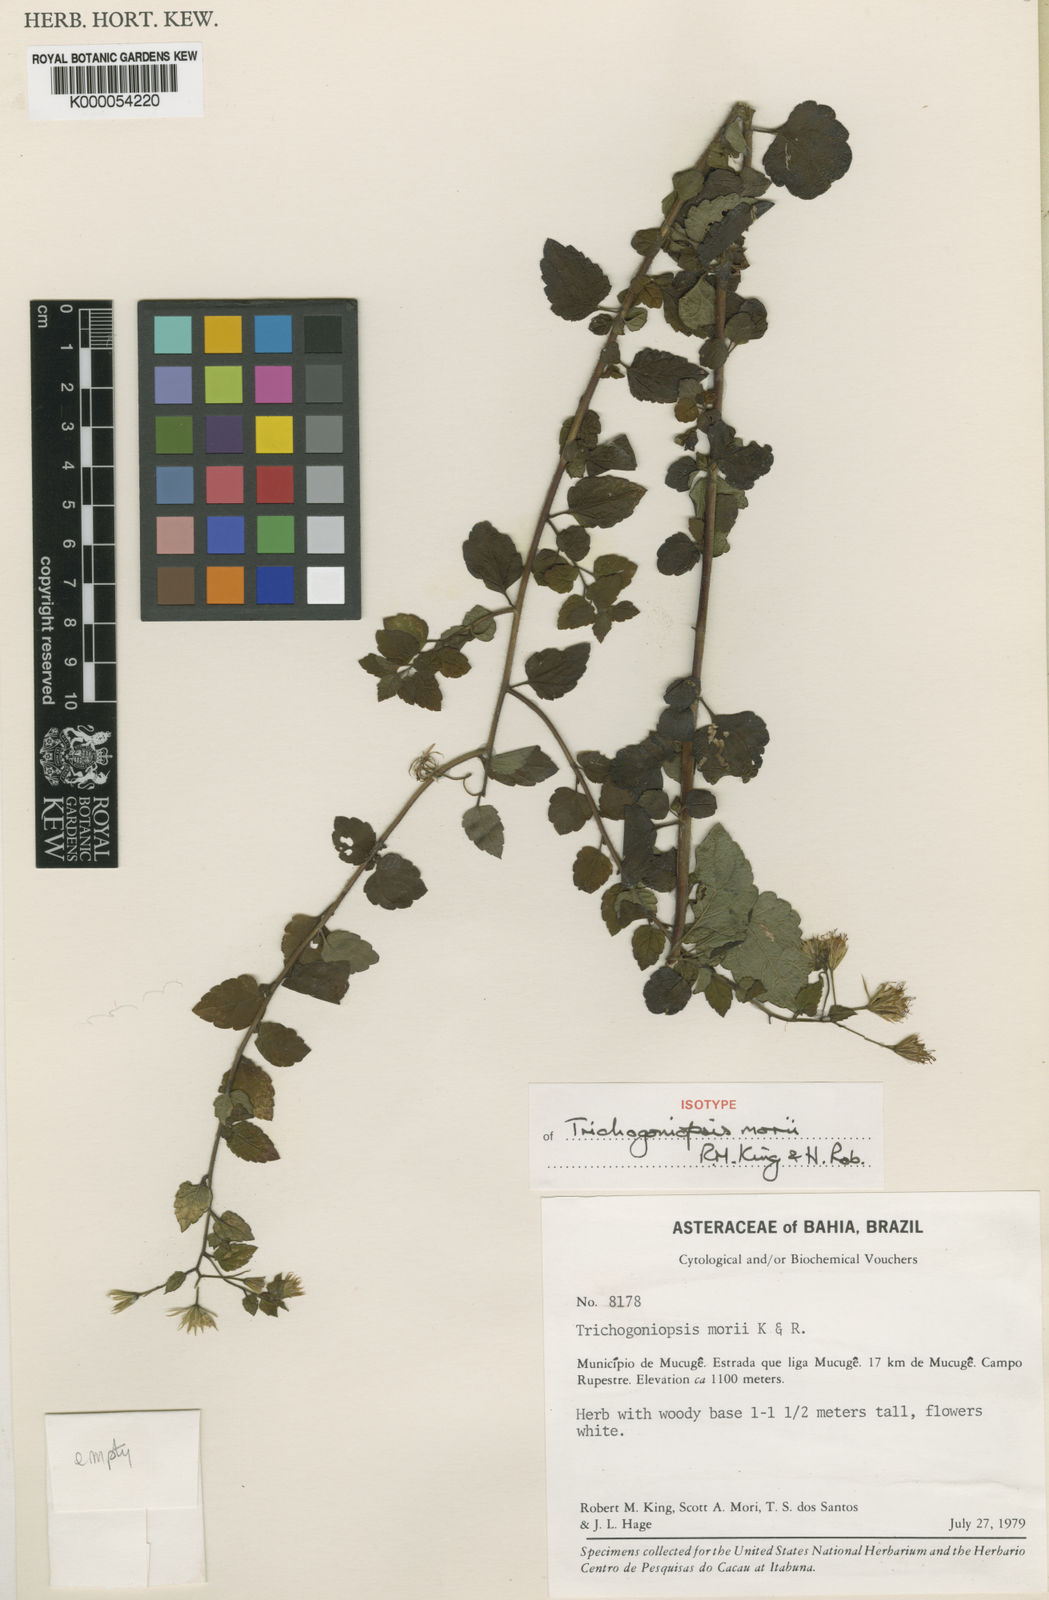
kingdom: Plantae
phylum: Tracheophyta
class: Magnoliopsida
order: Asterales
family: Asteraceae
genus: Trichogoniopsis
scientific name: Trichogoniopsis morii
